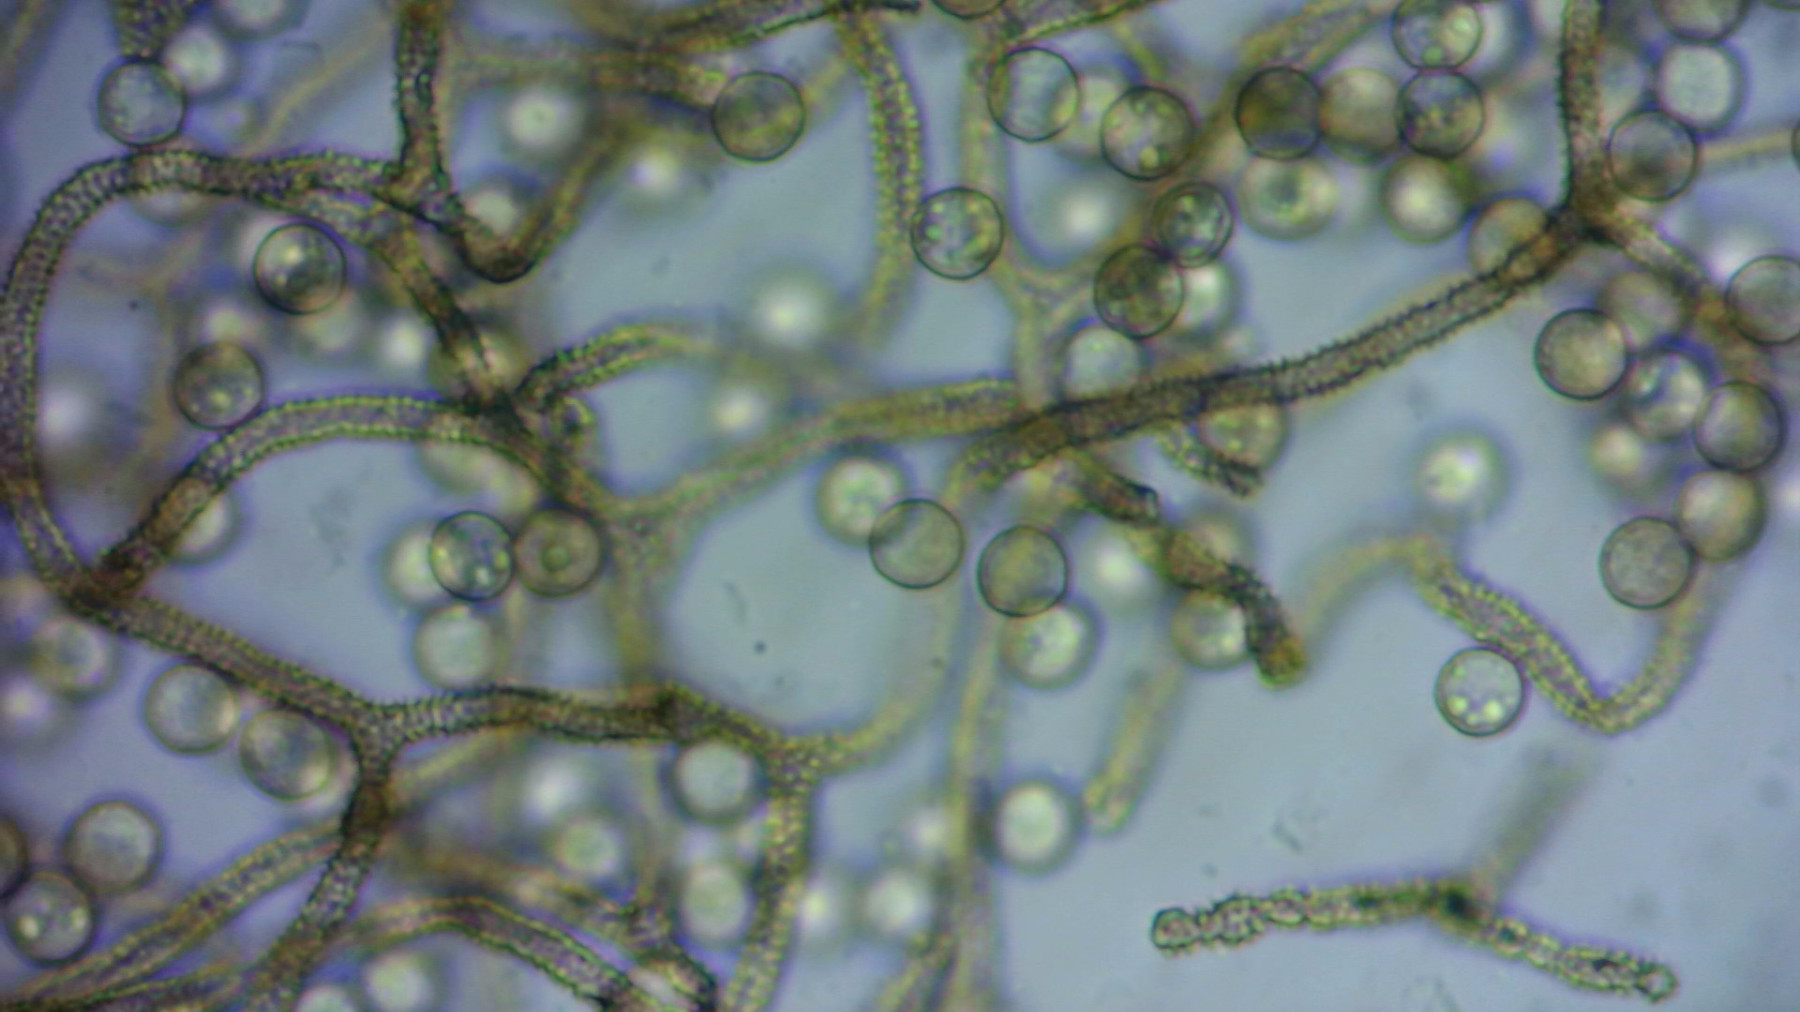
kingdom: Protozoa
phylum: Mycetozoa
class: Myxomycetes
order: Trichiales
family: Arcyriaceae
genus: Arcyria
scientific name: Arcyria cinerea
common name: White carnival candy slime mold
